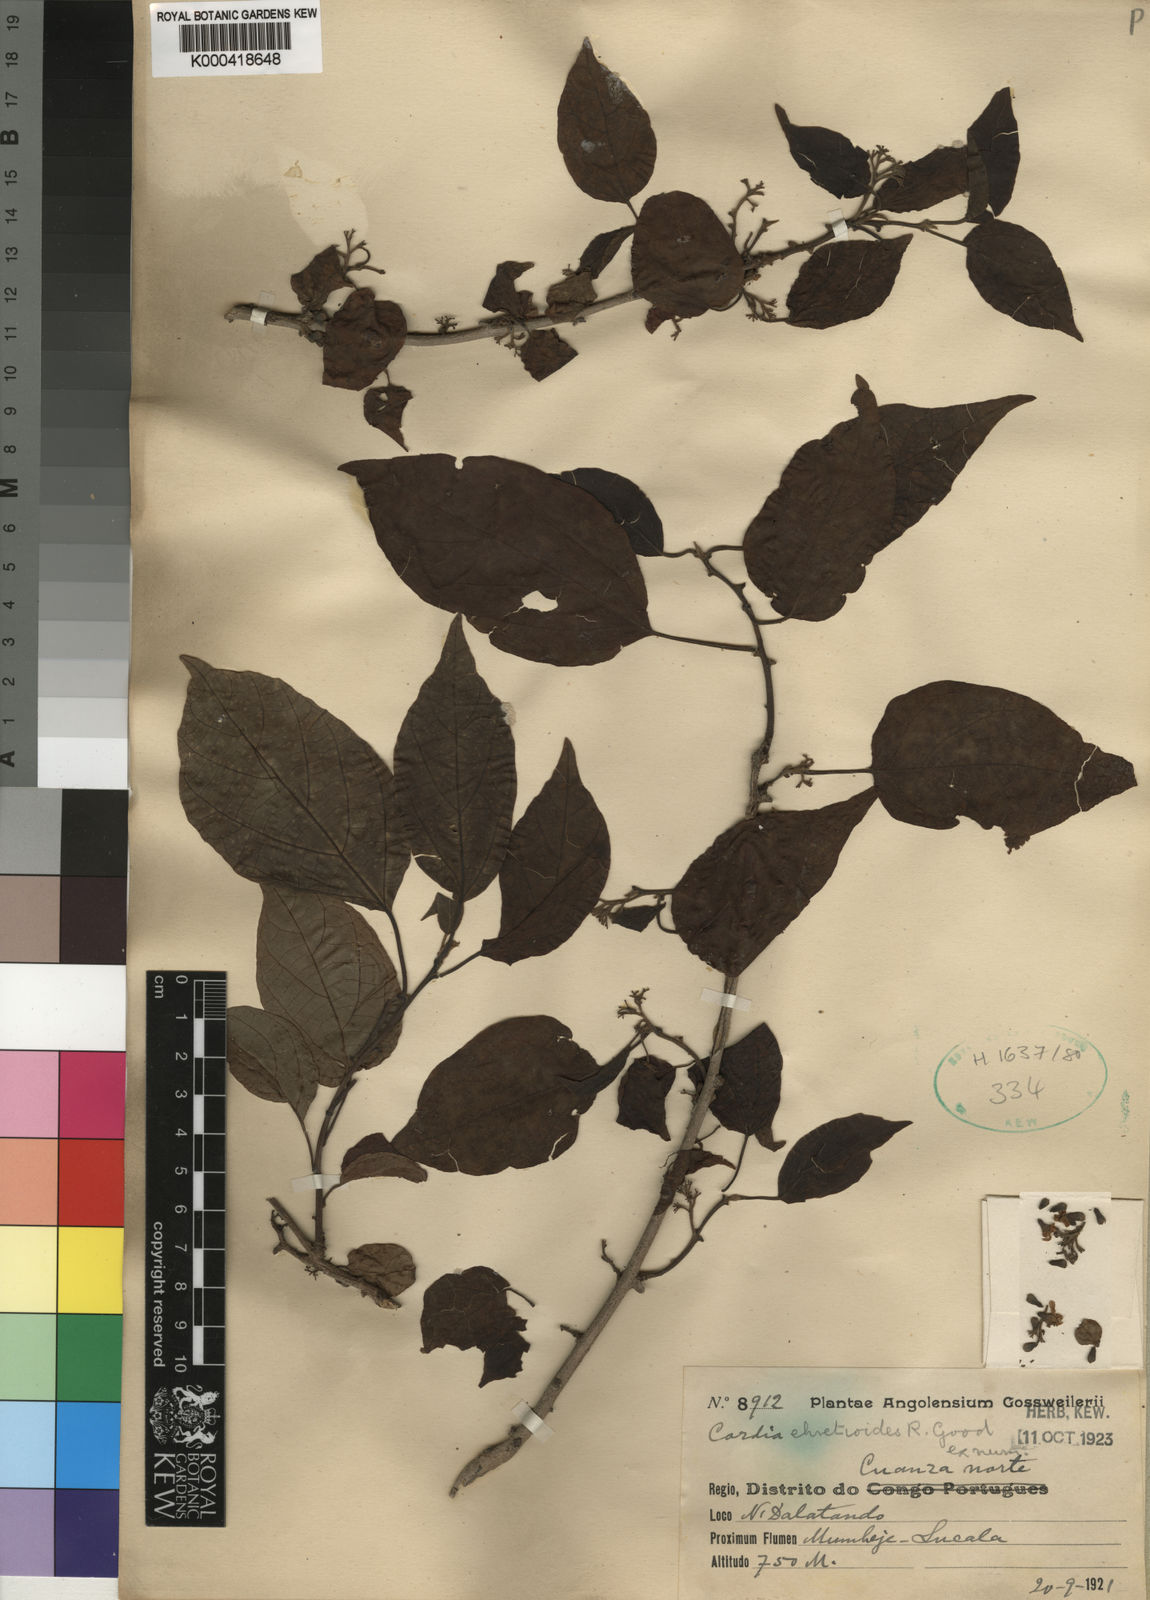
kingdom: Plantae
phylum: Tracheophyta
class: Magnoliopsida
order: Boraginales
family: Cordiaceae
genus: Cordia
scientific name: Cordia ehretioides
